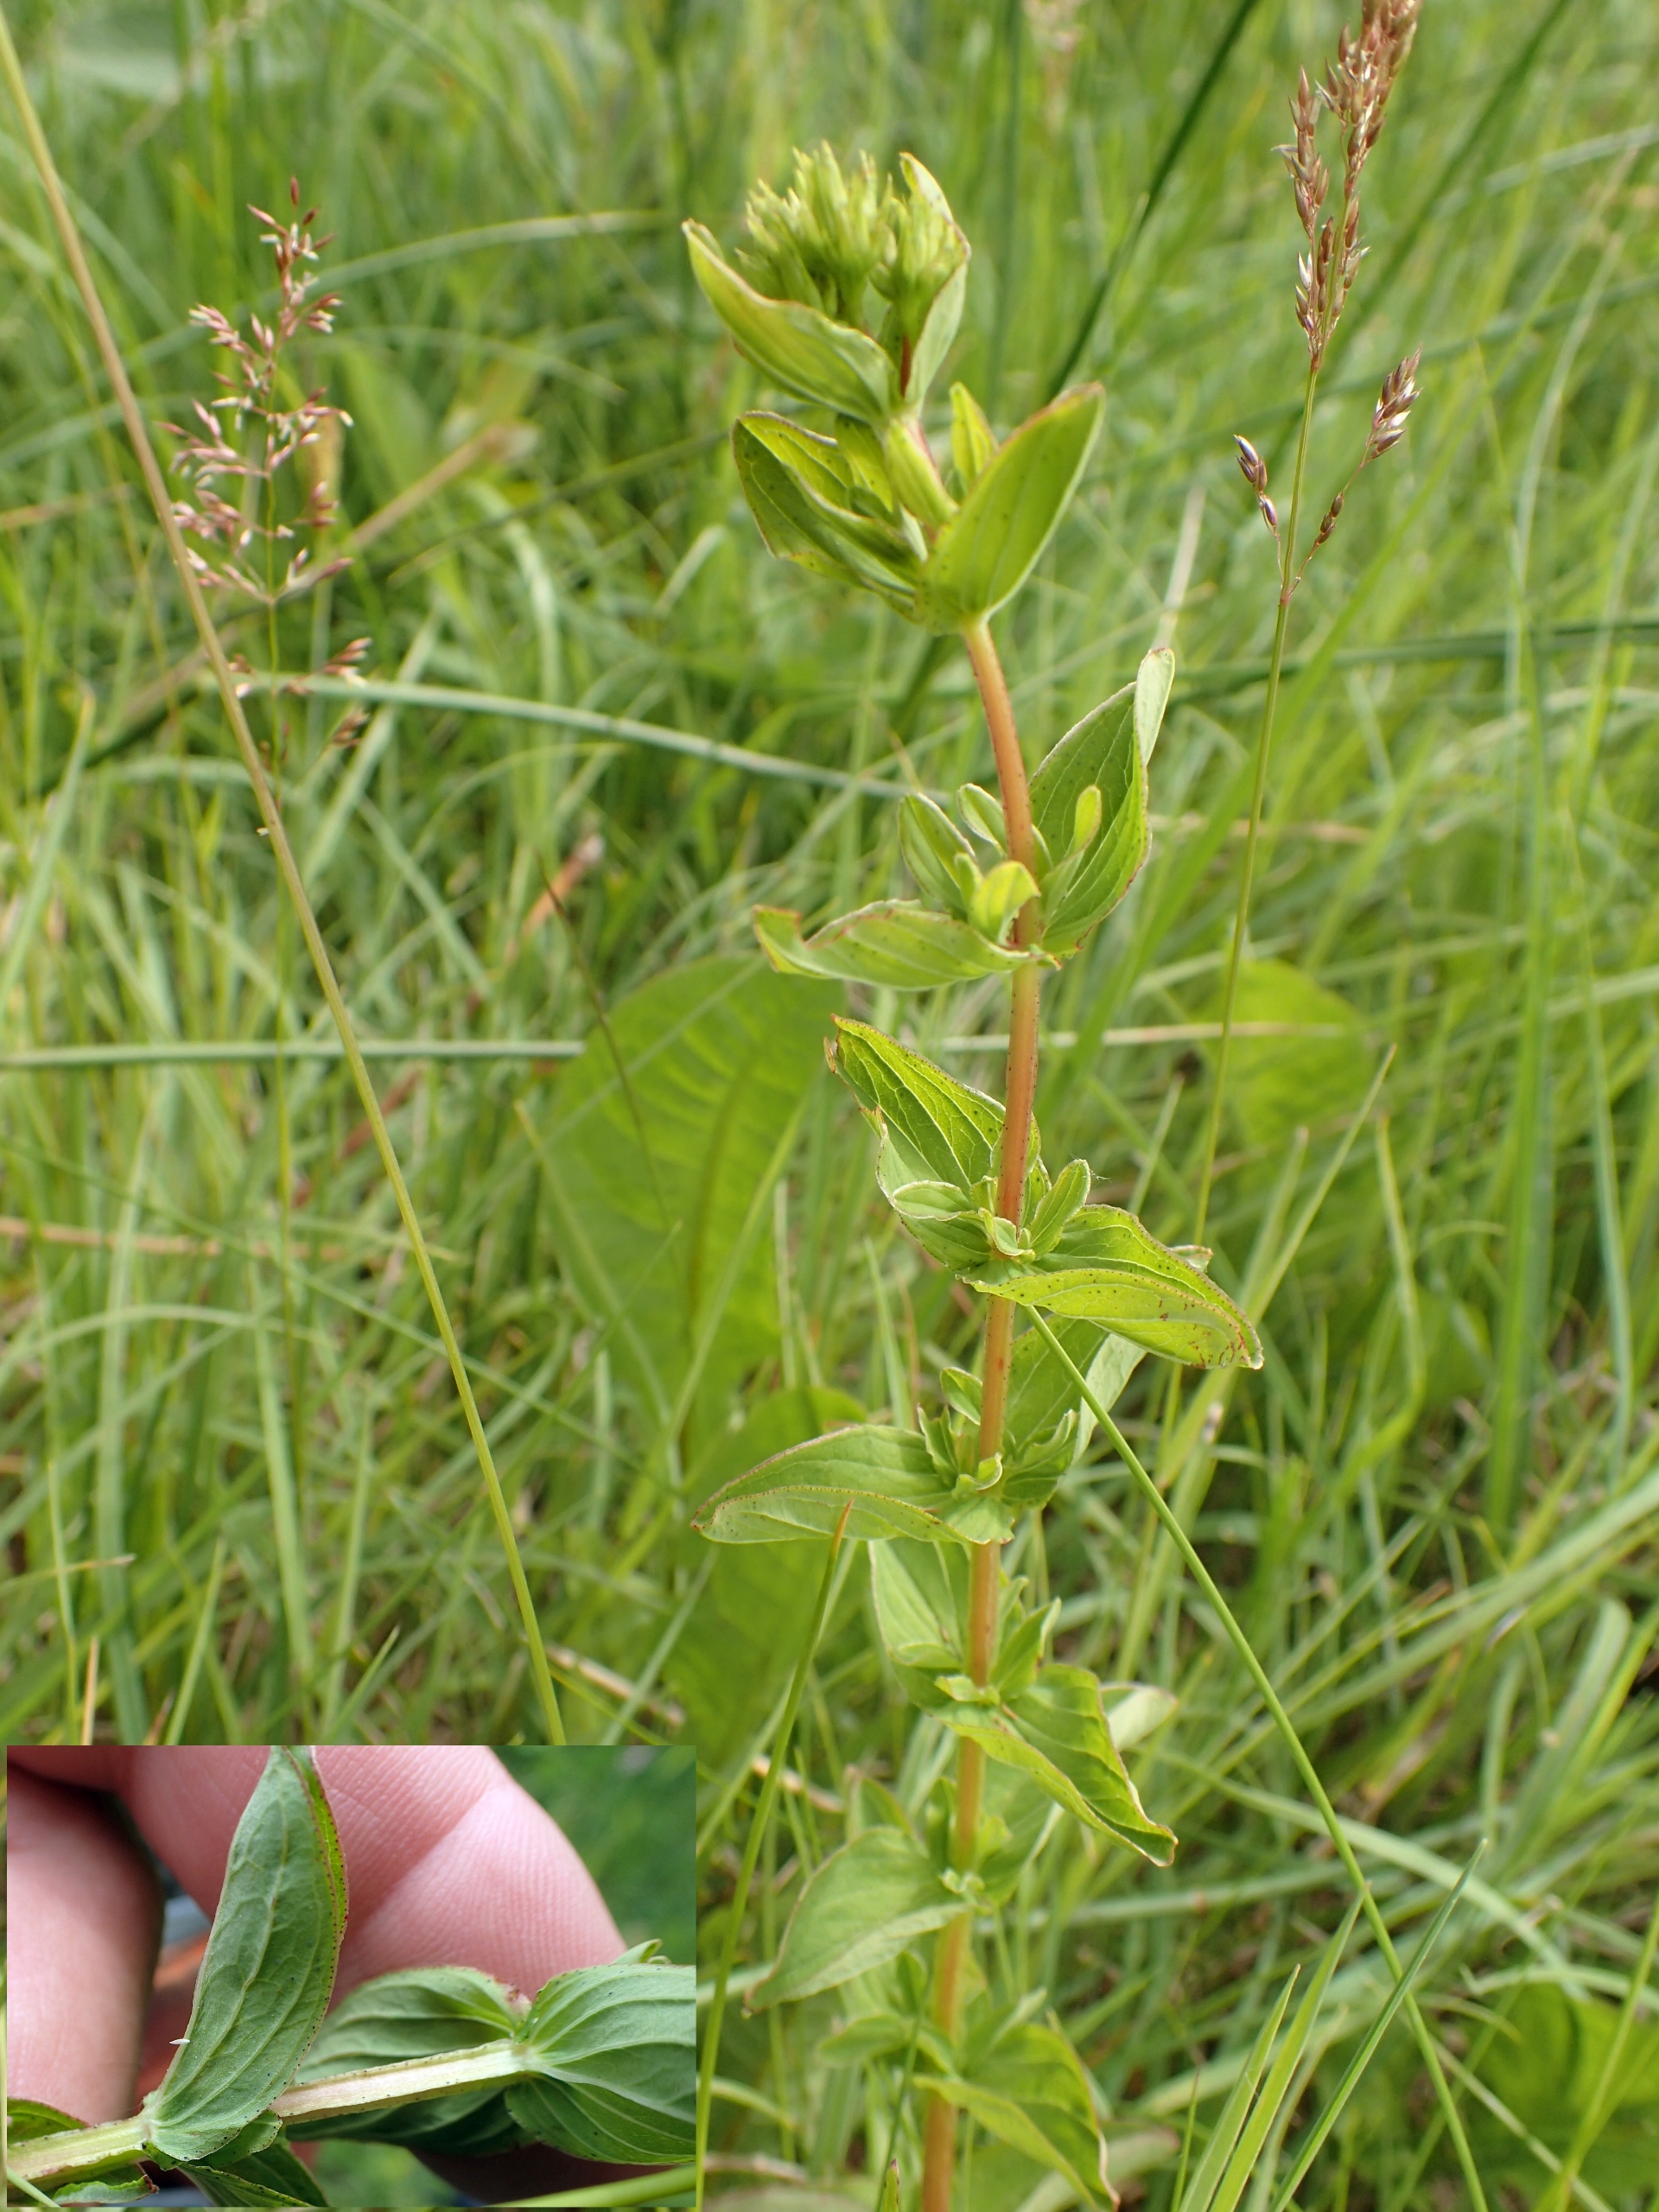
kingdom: Plantae
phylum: Tracheophyta
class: Magnoliopsida
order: Malpighiales
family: Hypericaceae
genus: Hypericum
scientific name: Hypericum tetrapterum
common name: Vinget perikon
